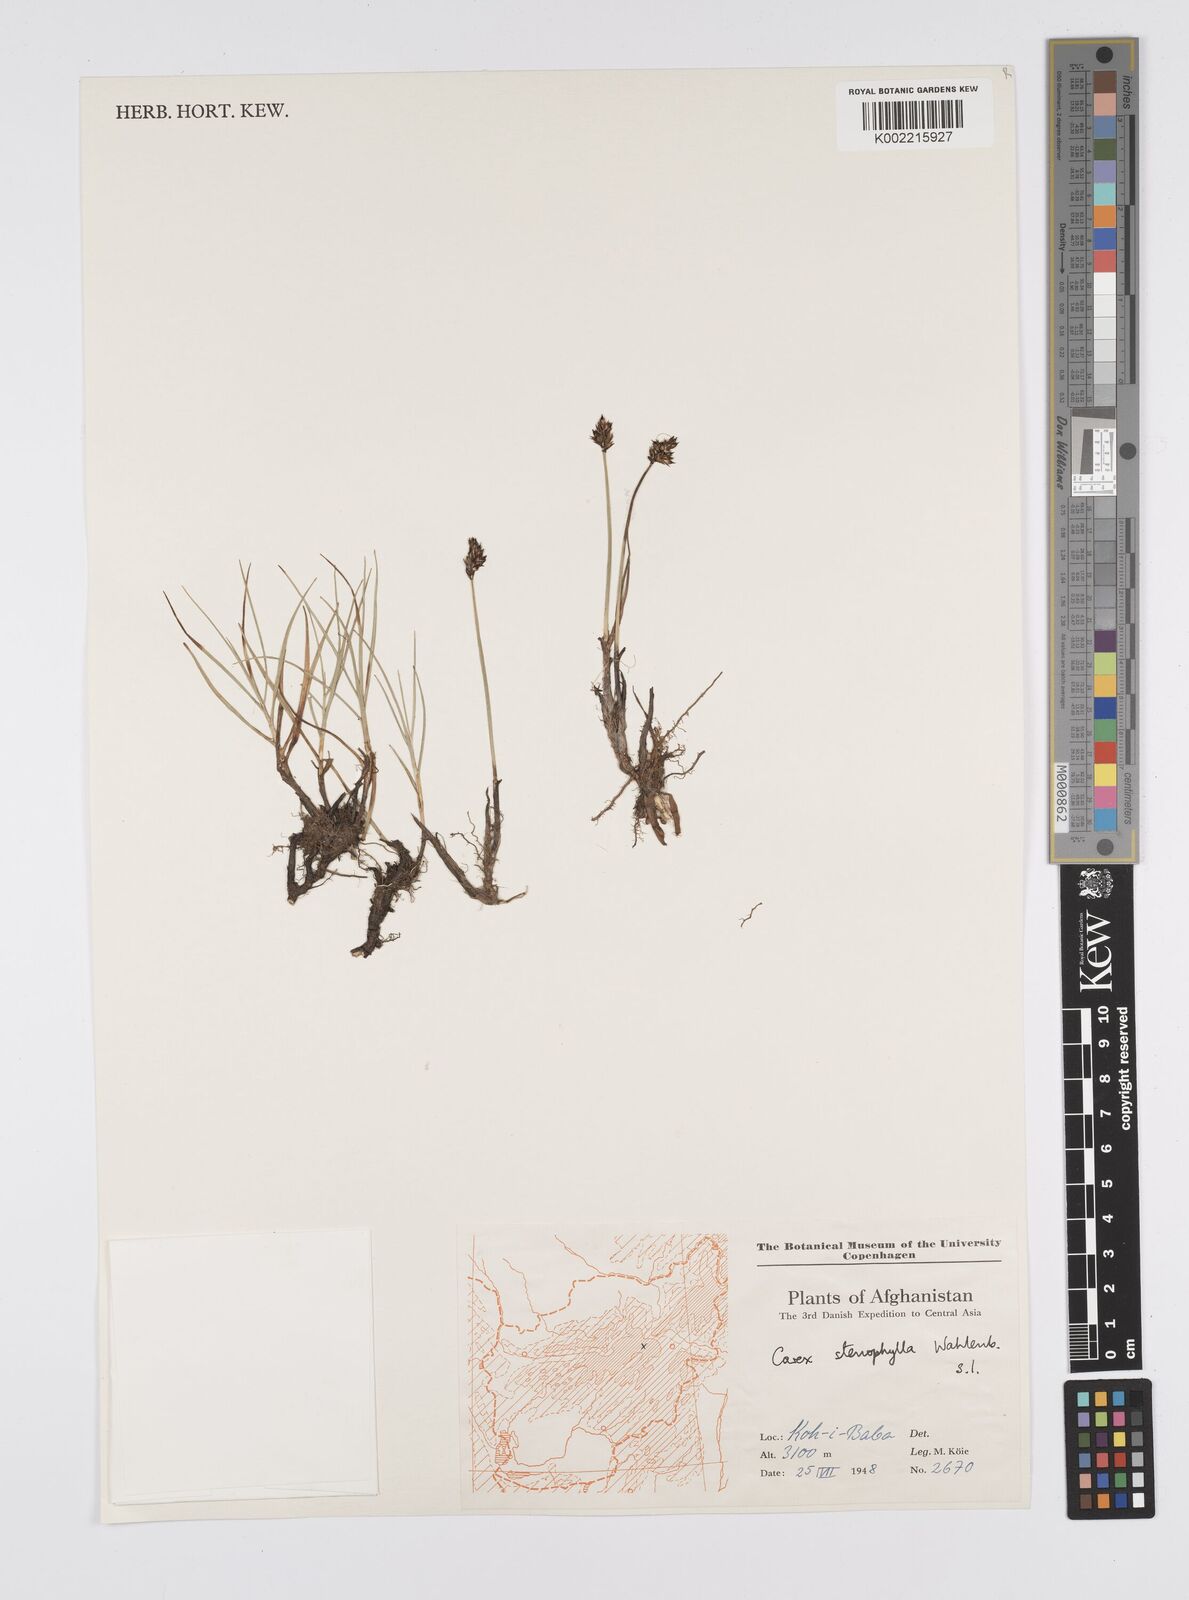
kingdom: Plantae
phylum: Tracheophyta
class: Liliopsida
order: Poales
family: Cyperaceae
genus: Carex
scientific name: Carex stenophylla
